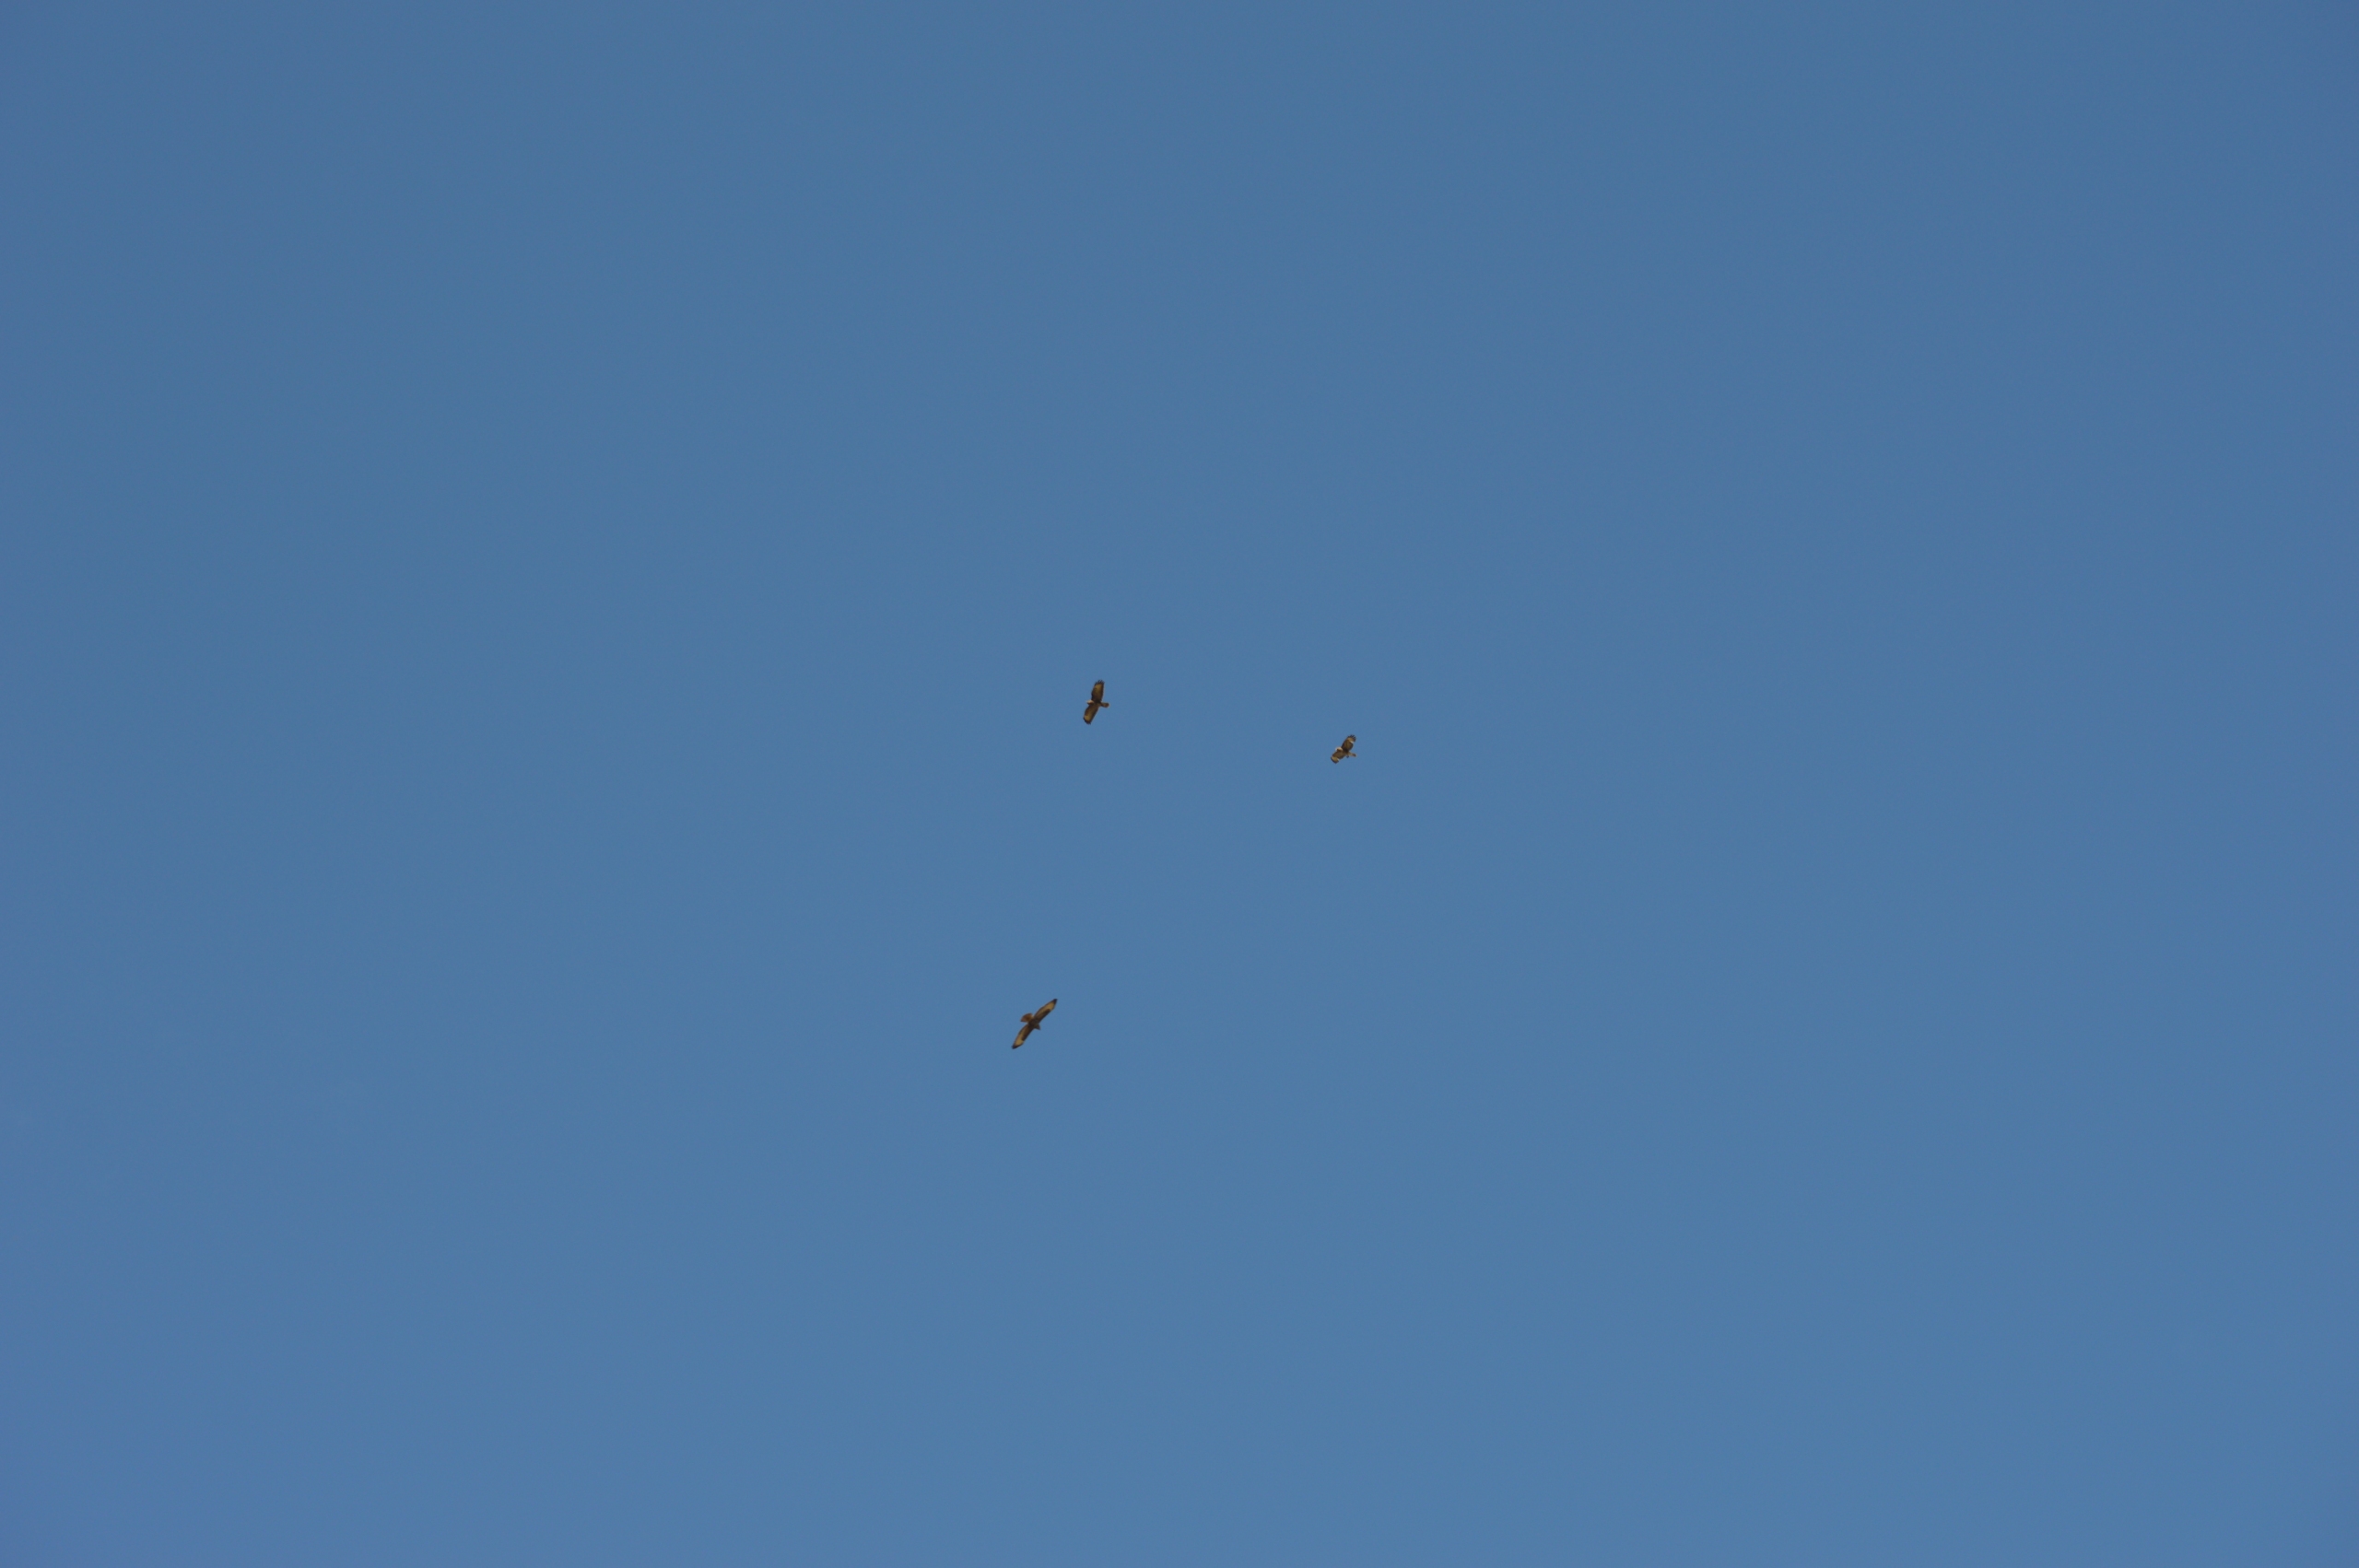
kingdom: Animalia
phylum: Chordata
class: Aves
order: Accipitriformes
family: Accipitridae
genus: Buteo
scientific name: Buteo buteo
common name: Musvåge
